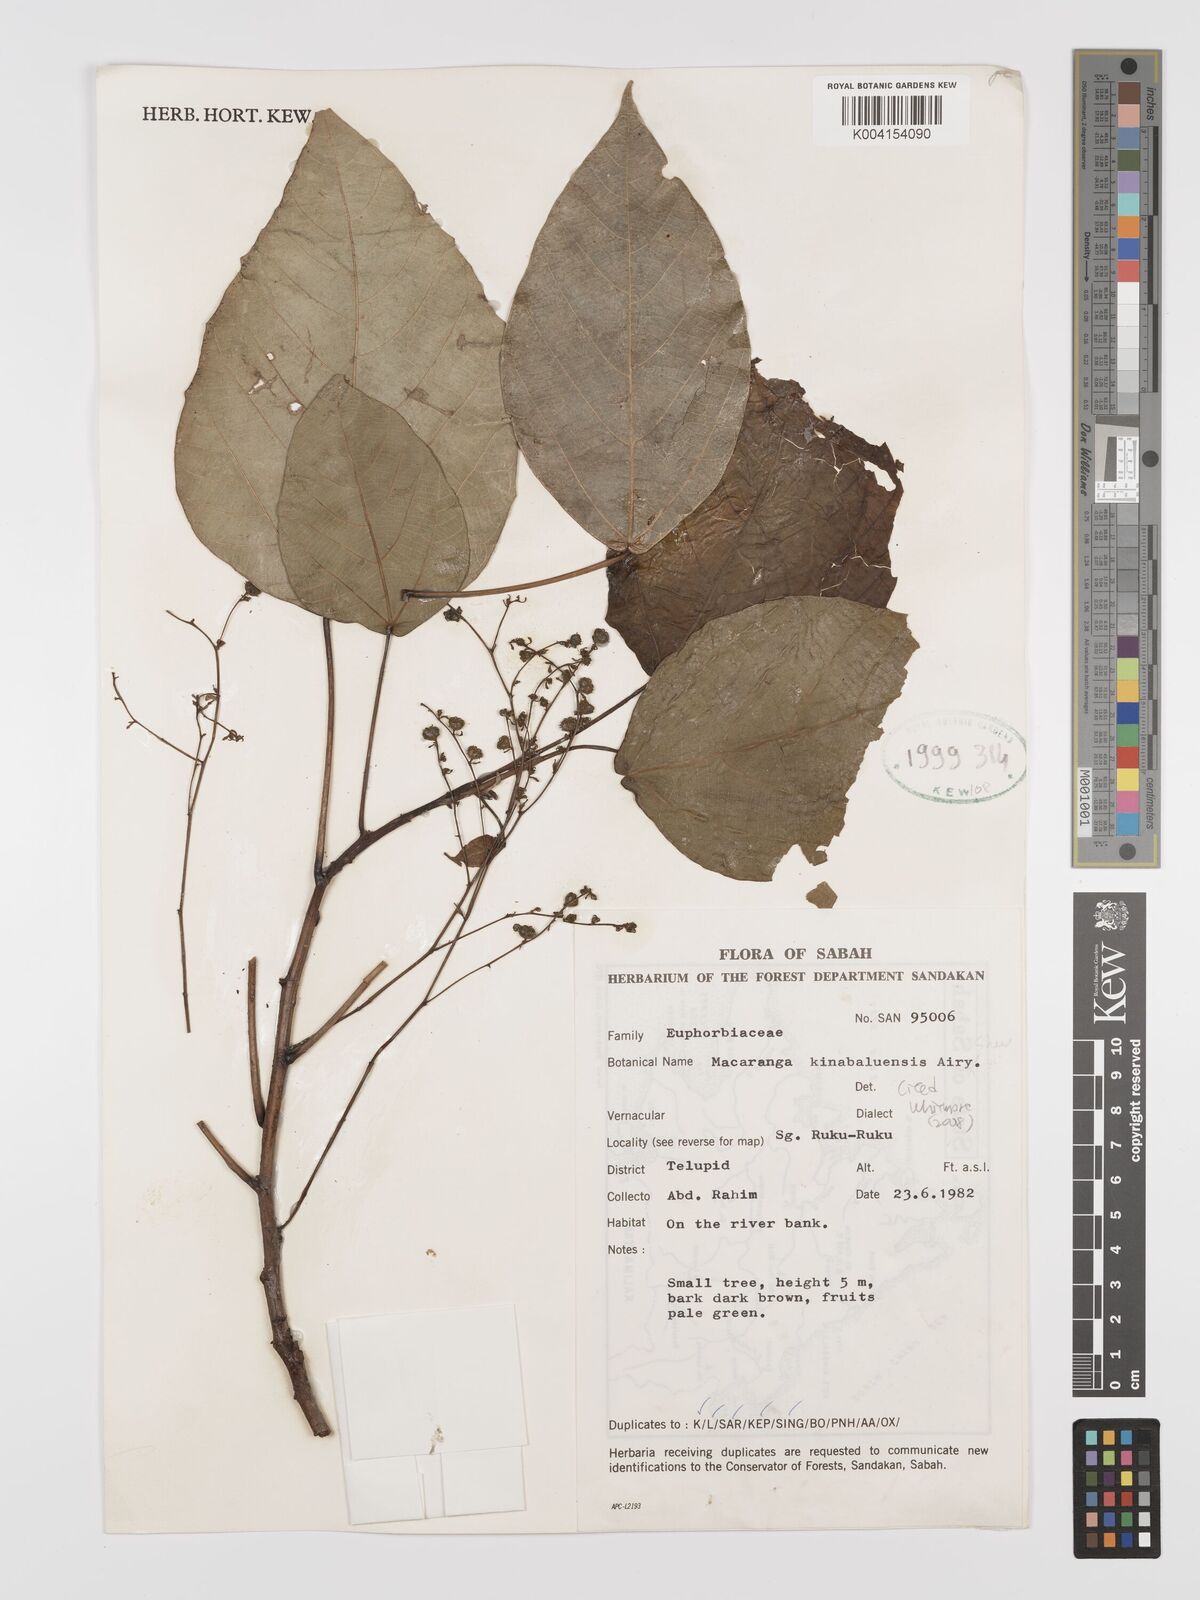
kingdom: Plantae
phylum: Tracheophyta
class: Magnoliopsida
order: Malpighiales
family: Euphorbiaceae
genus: Macaranga
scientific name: Macaranga kinabaluensis
